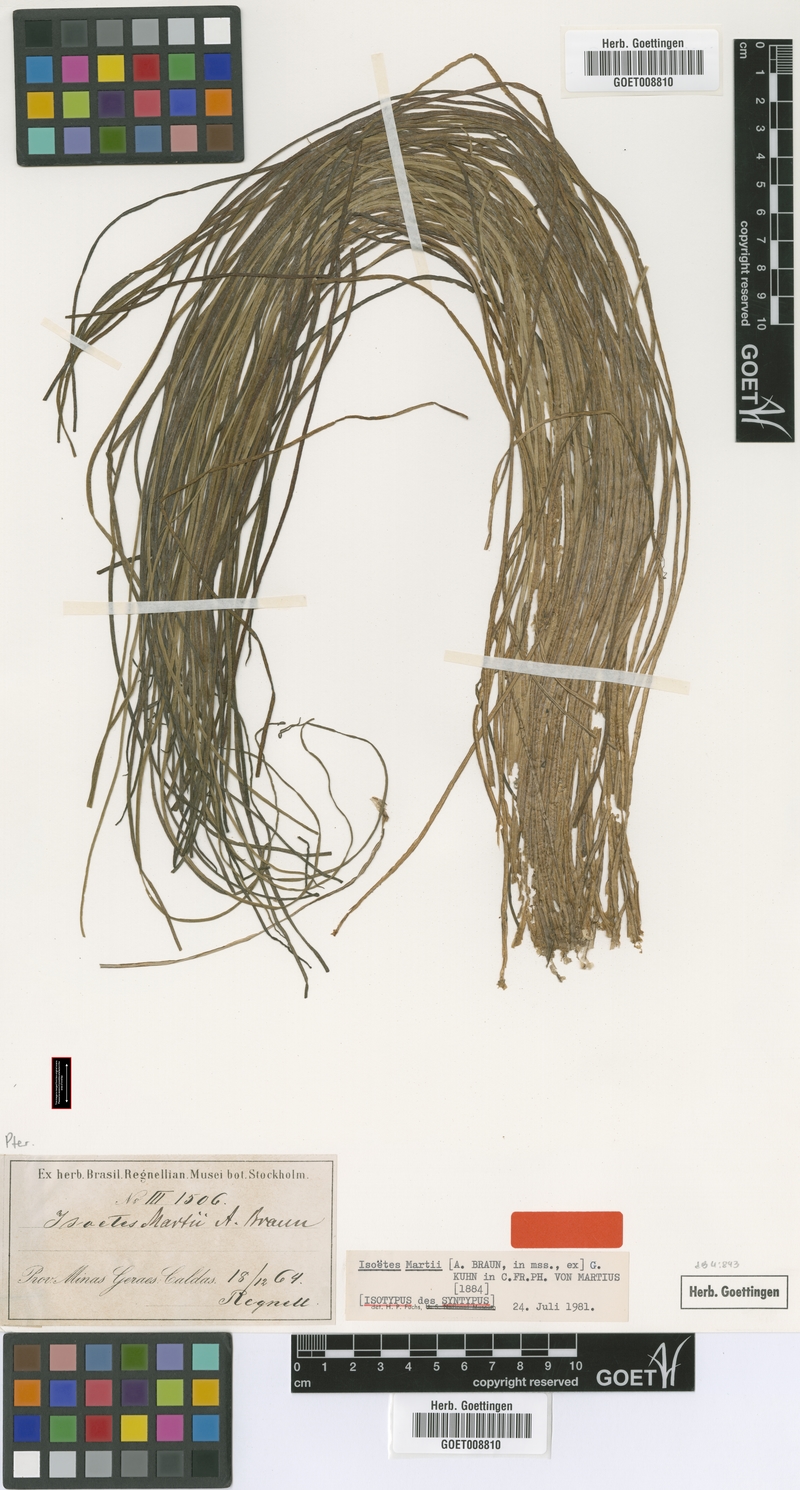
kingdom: Plantae
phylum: Tracheophyta
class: Lycopodiopsida
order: Isoetales
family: Isoetaceae
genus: Isoetes
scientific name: Isoetes martii
